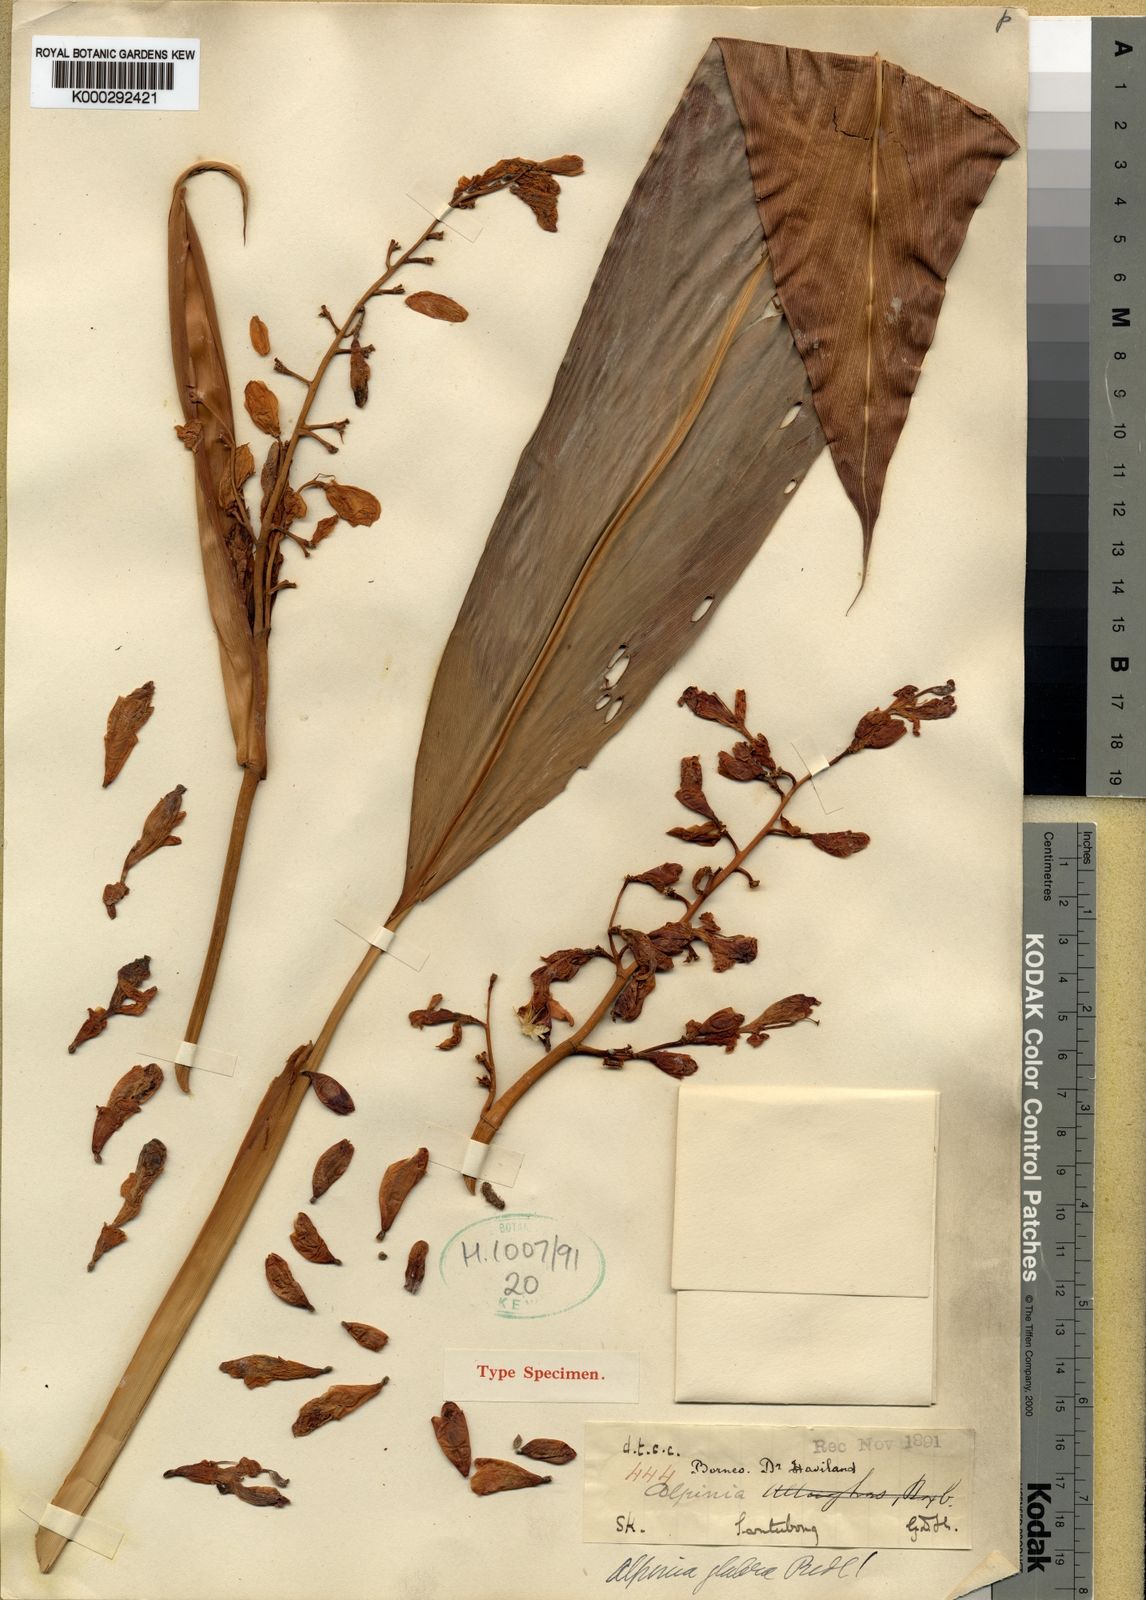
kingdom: Plantae
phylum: Tracheophyta
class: Liliopsida
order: Zingiberales
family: Zingiberaceae
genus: Alpinia
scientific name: Alpinia glabra
